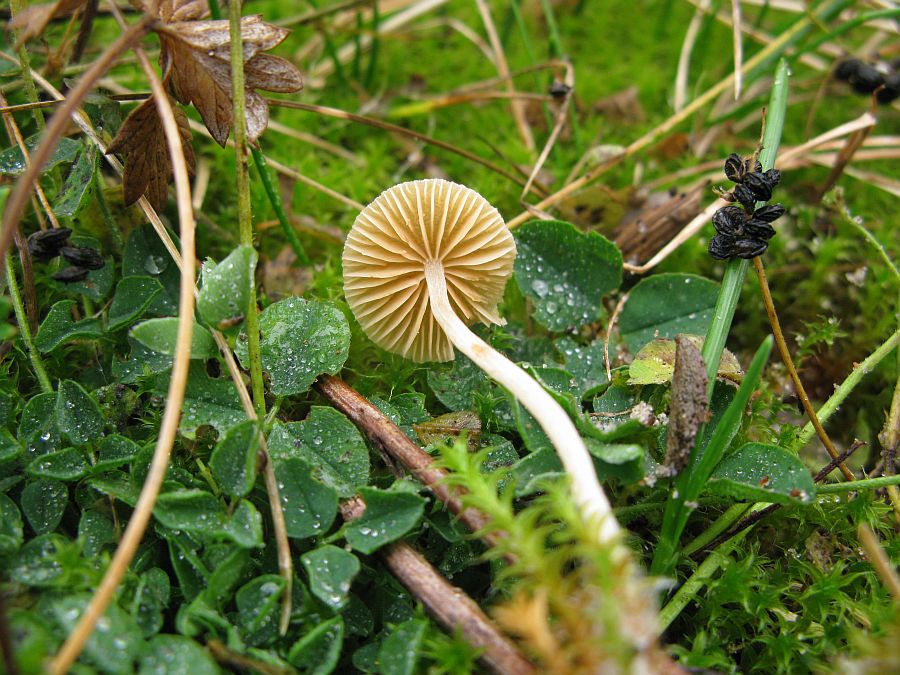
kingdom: Fungi
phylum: Basidiomycota
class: Agaricomycetes
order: Agaricales
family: Hymenogastraceae
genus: Galerina
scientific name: Galerina graminea
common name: plæne-hjelmhat
